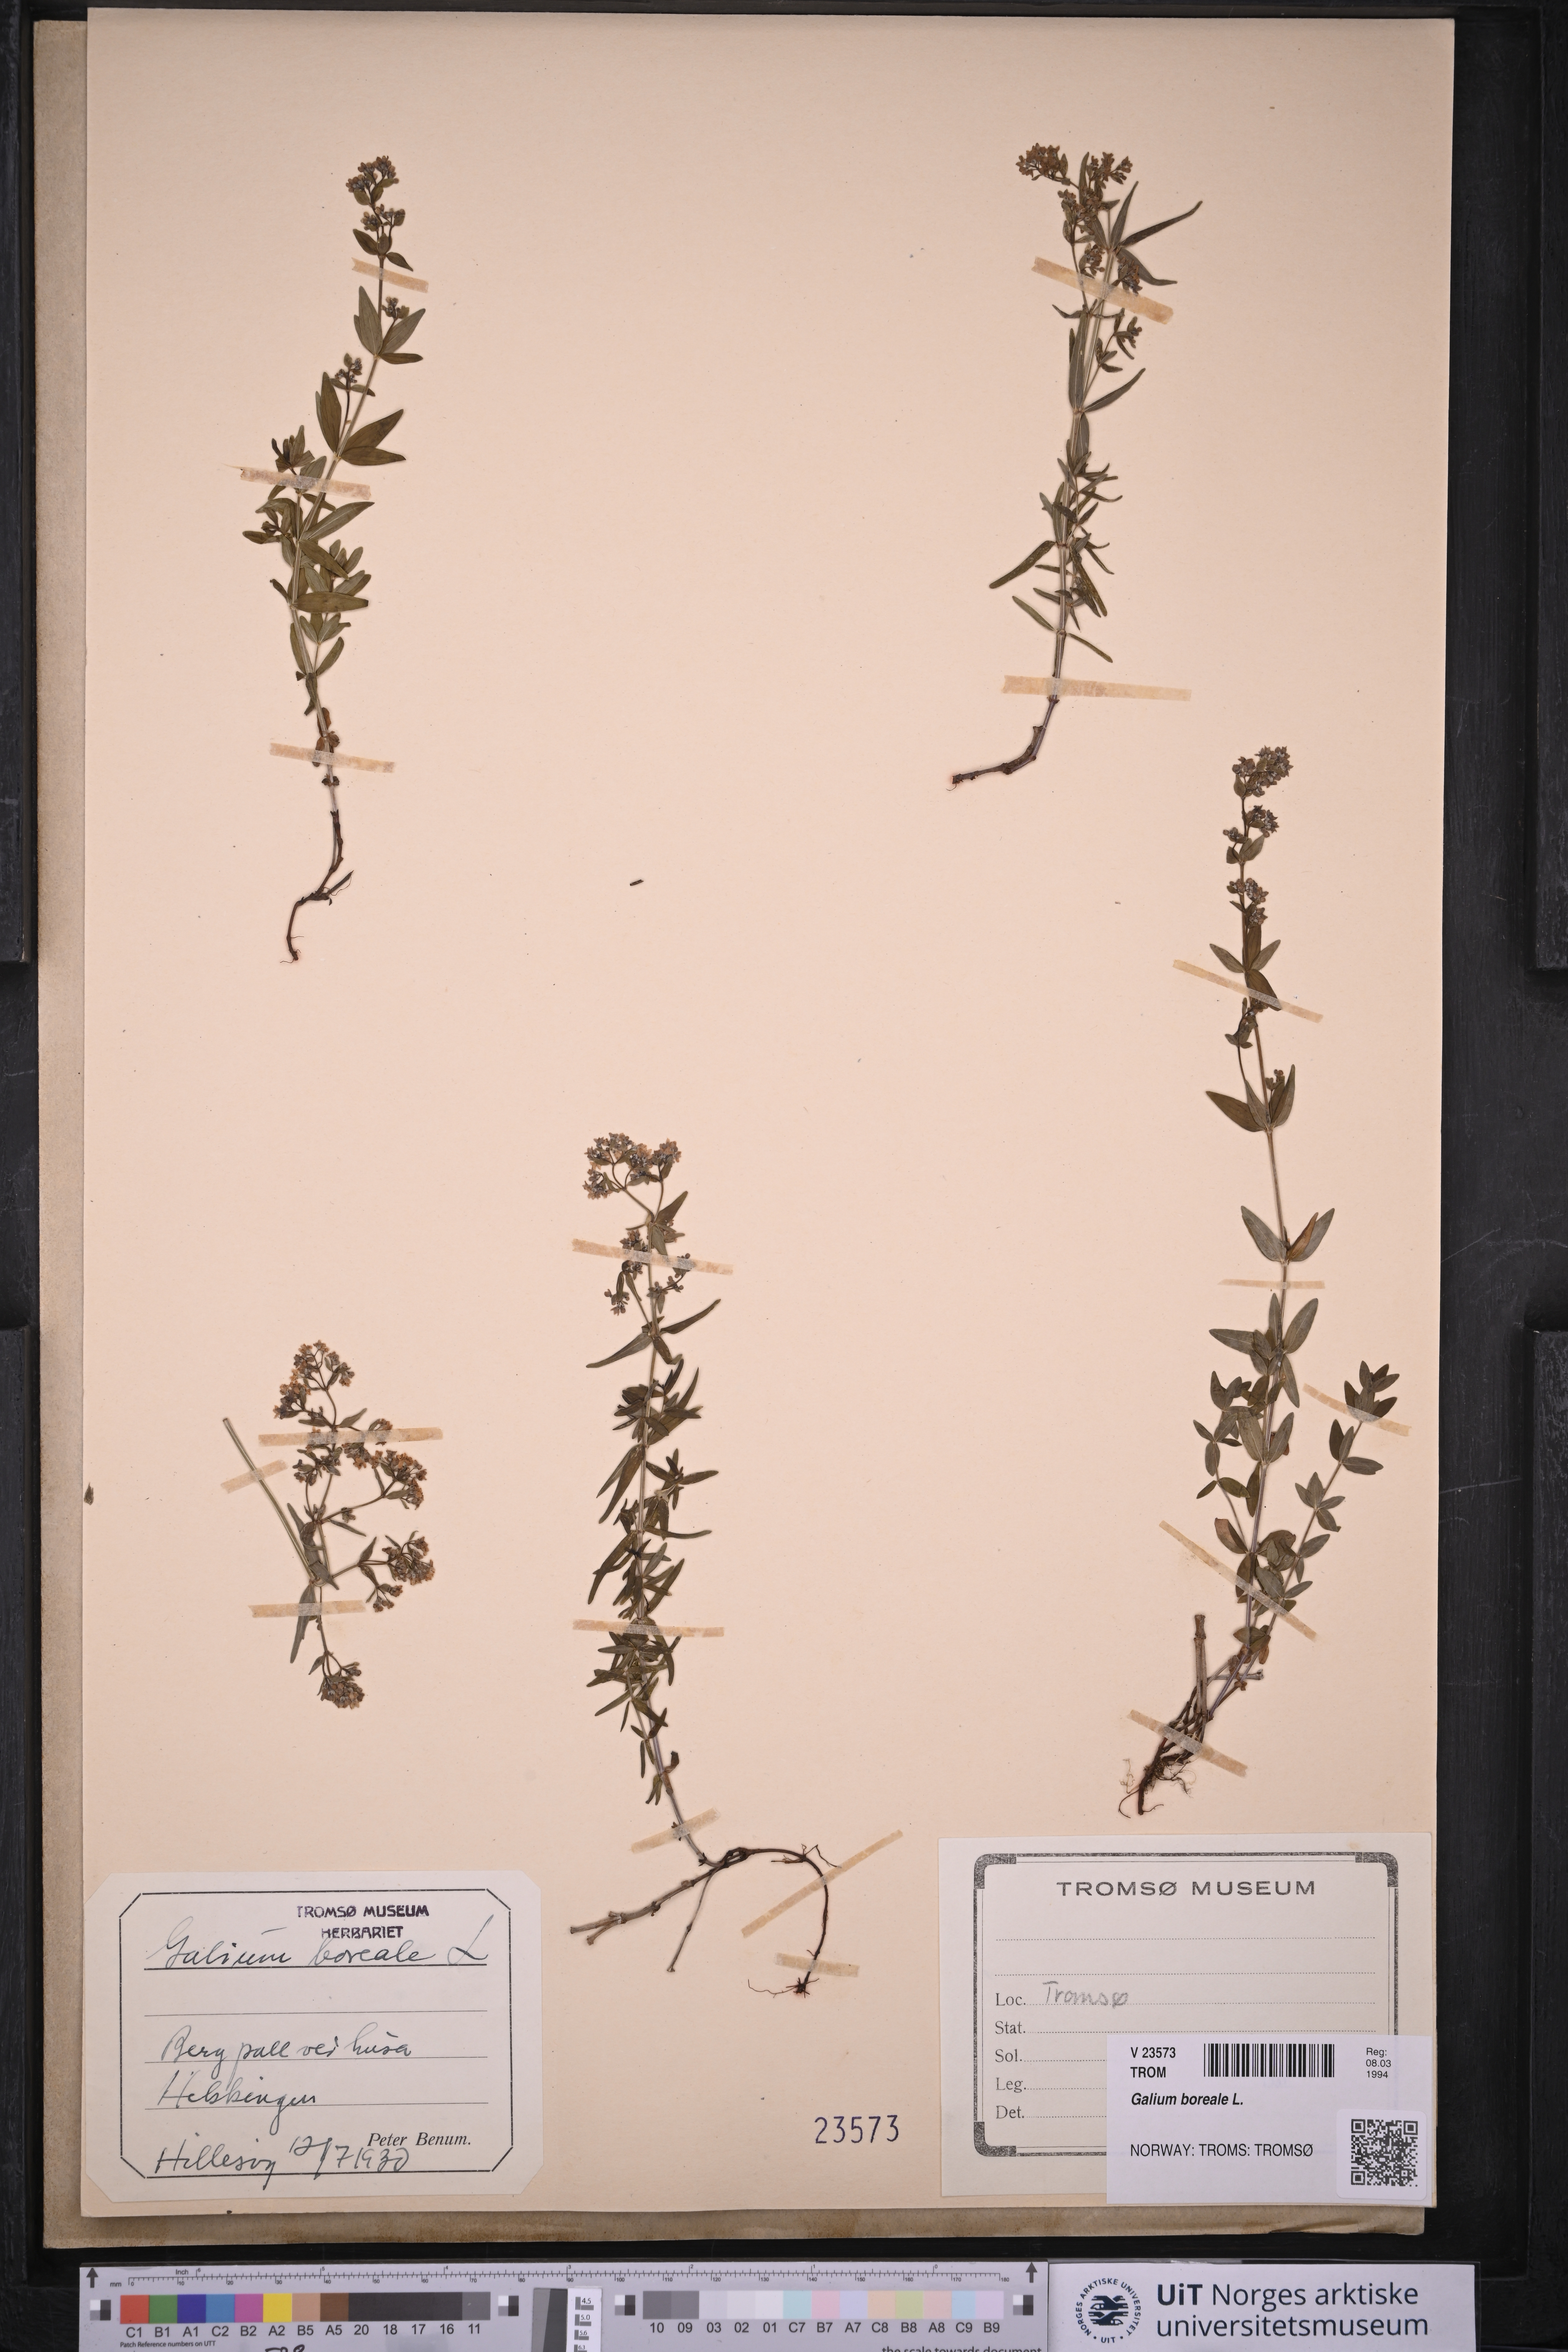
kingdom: Plantae
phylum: Tracheophyta
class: Magnoliopsida
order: Gentianales
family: Rubiaceae
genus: Galium
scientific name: Galium boreale
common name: Northern bedstraw
